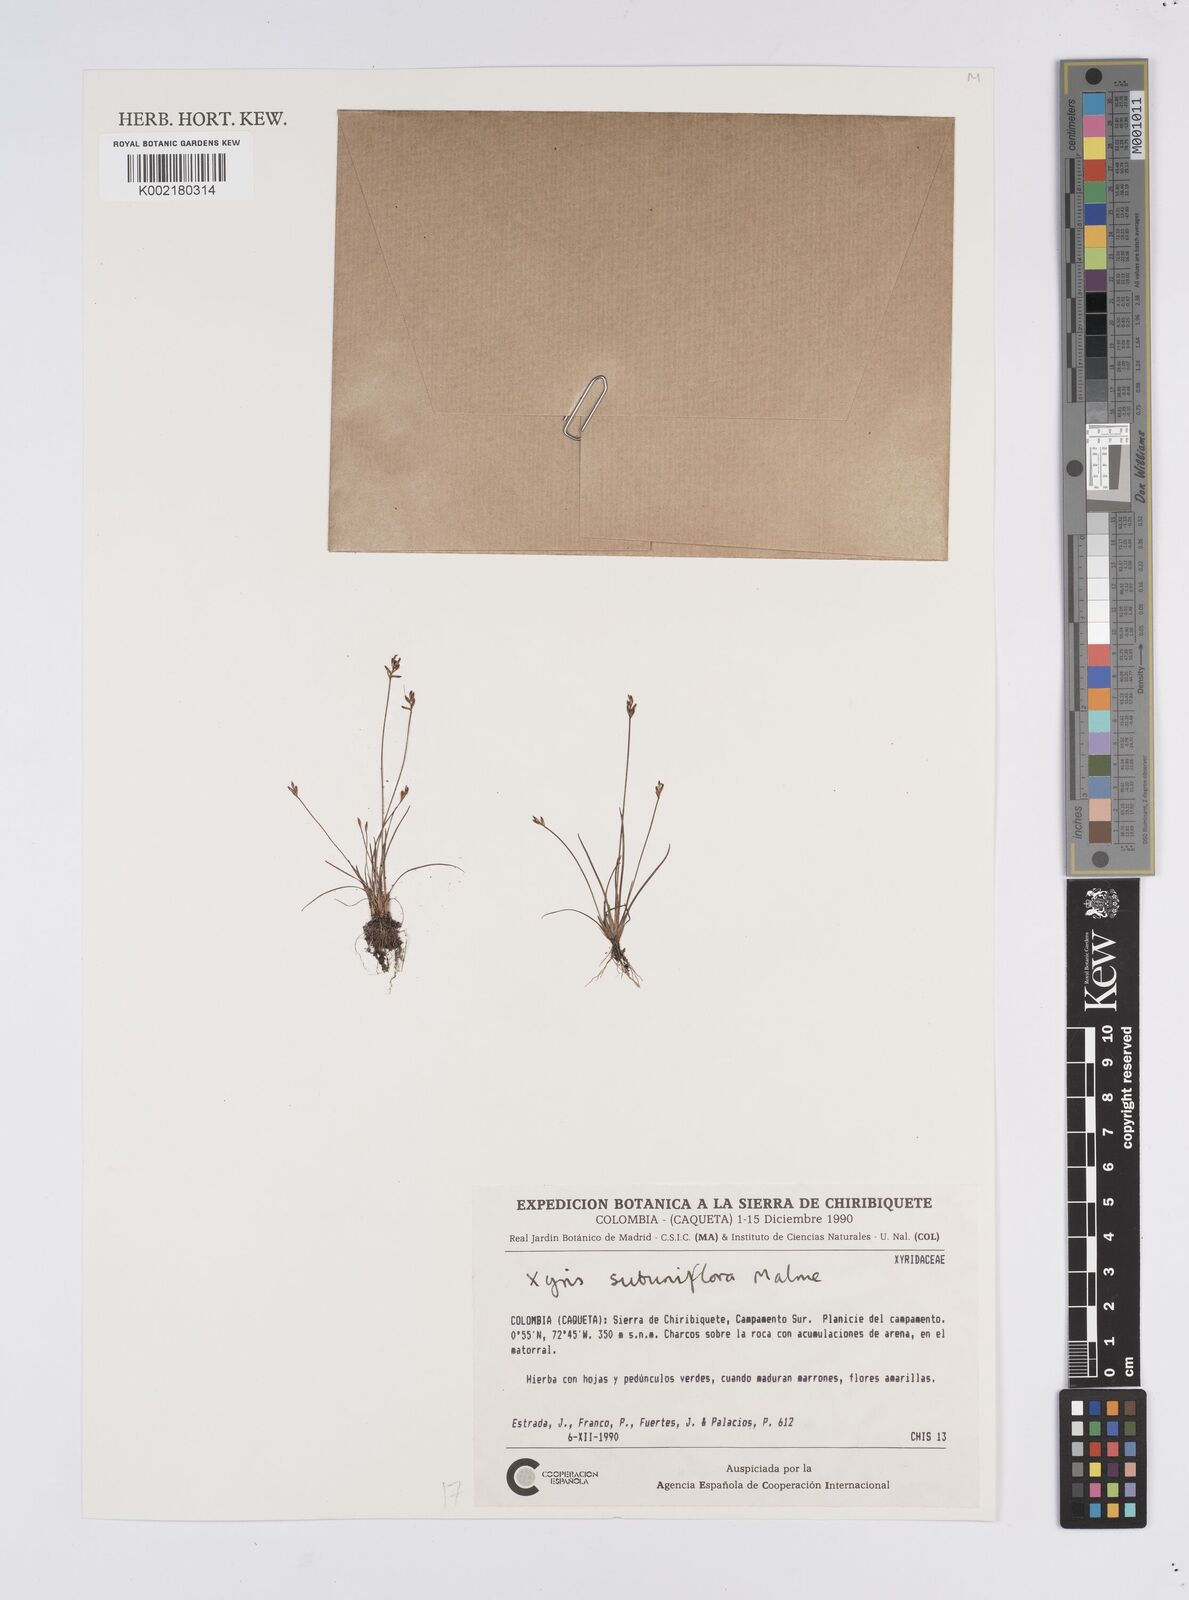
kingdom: Plantae
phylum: Tracheophyta
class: Liliopsida
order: Poales
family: Xyridaceae
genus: Xyris
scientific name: Xyris subuniflora
